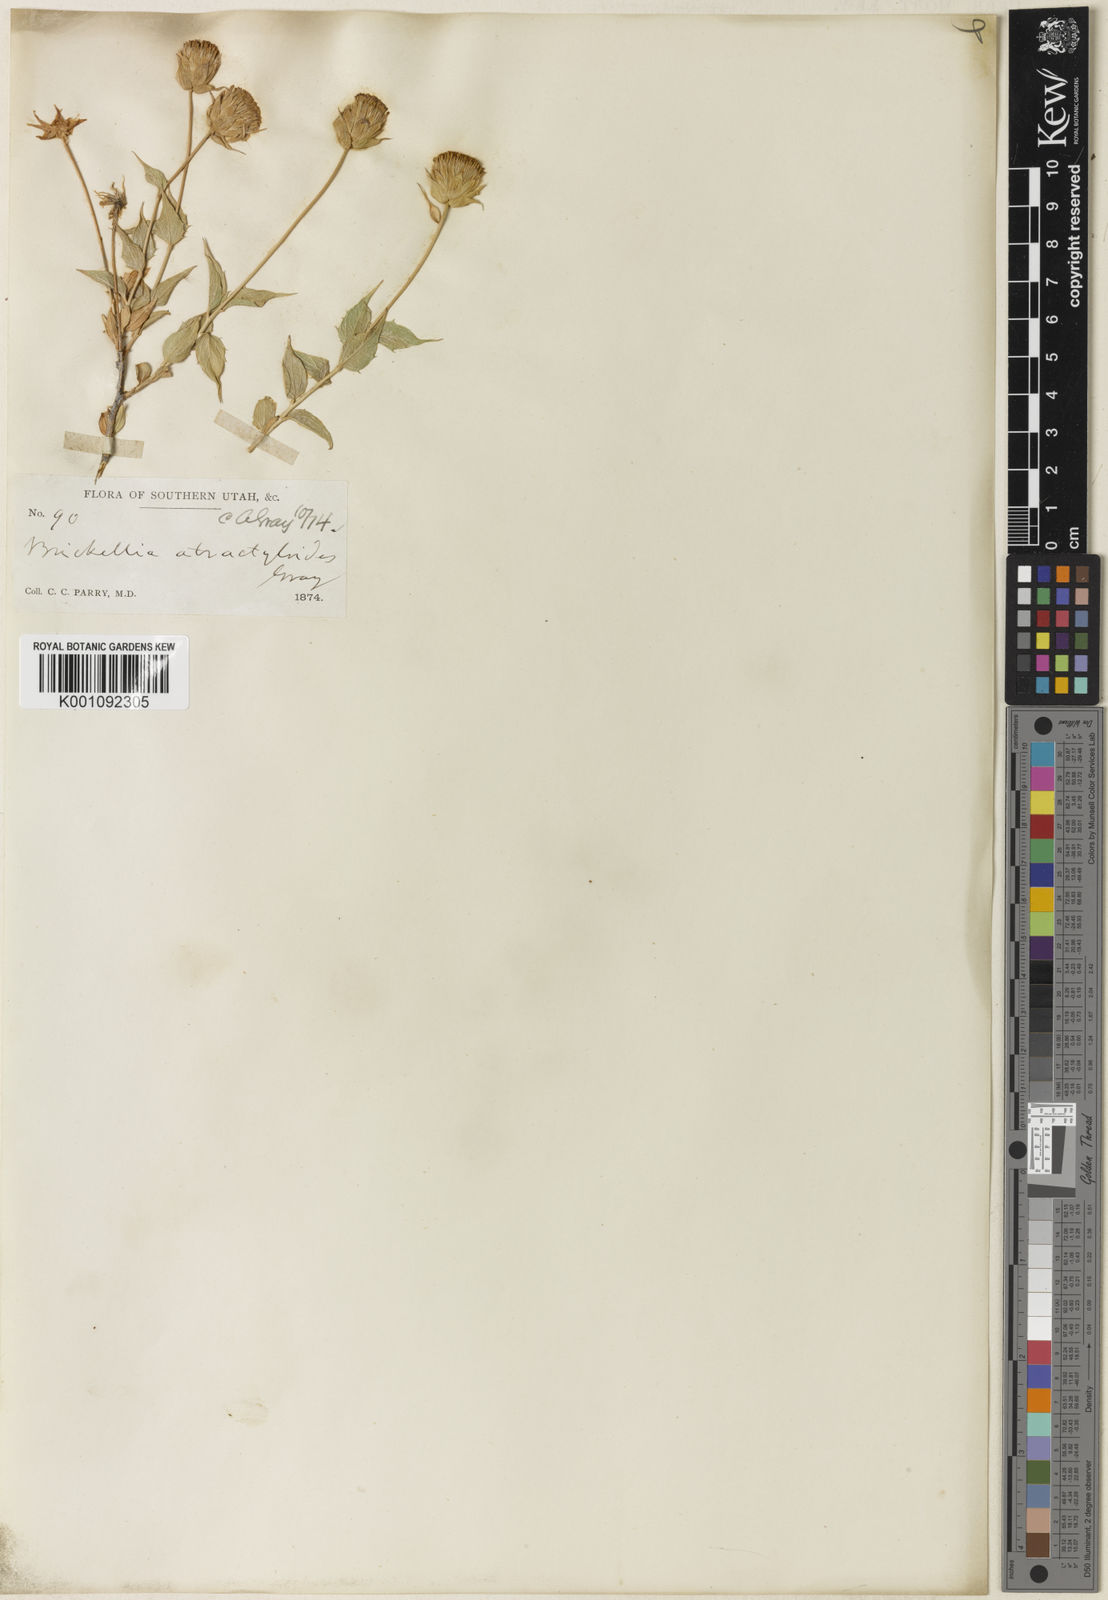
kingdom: Plantae
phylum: Tracheophyta
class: Magnoliopsida
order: Asterales
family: Asteraceae
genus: Brickellia
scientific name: Brickellia atractyloides
